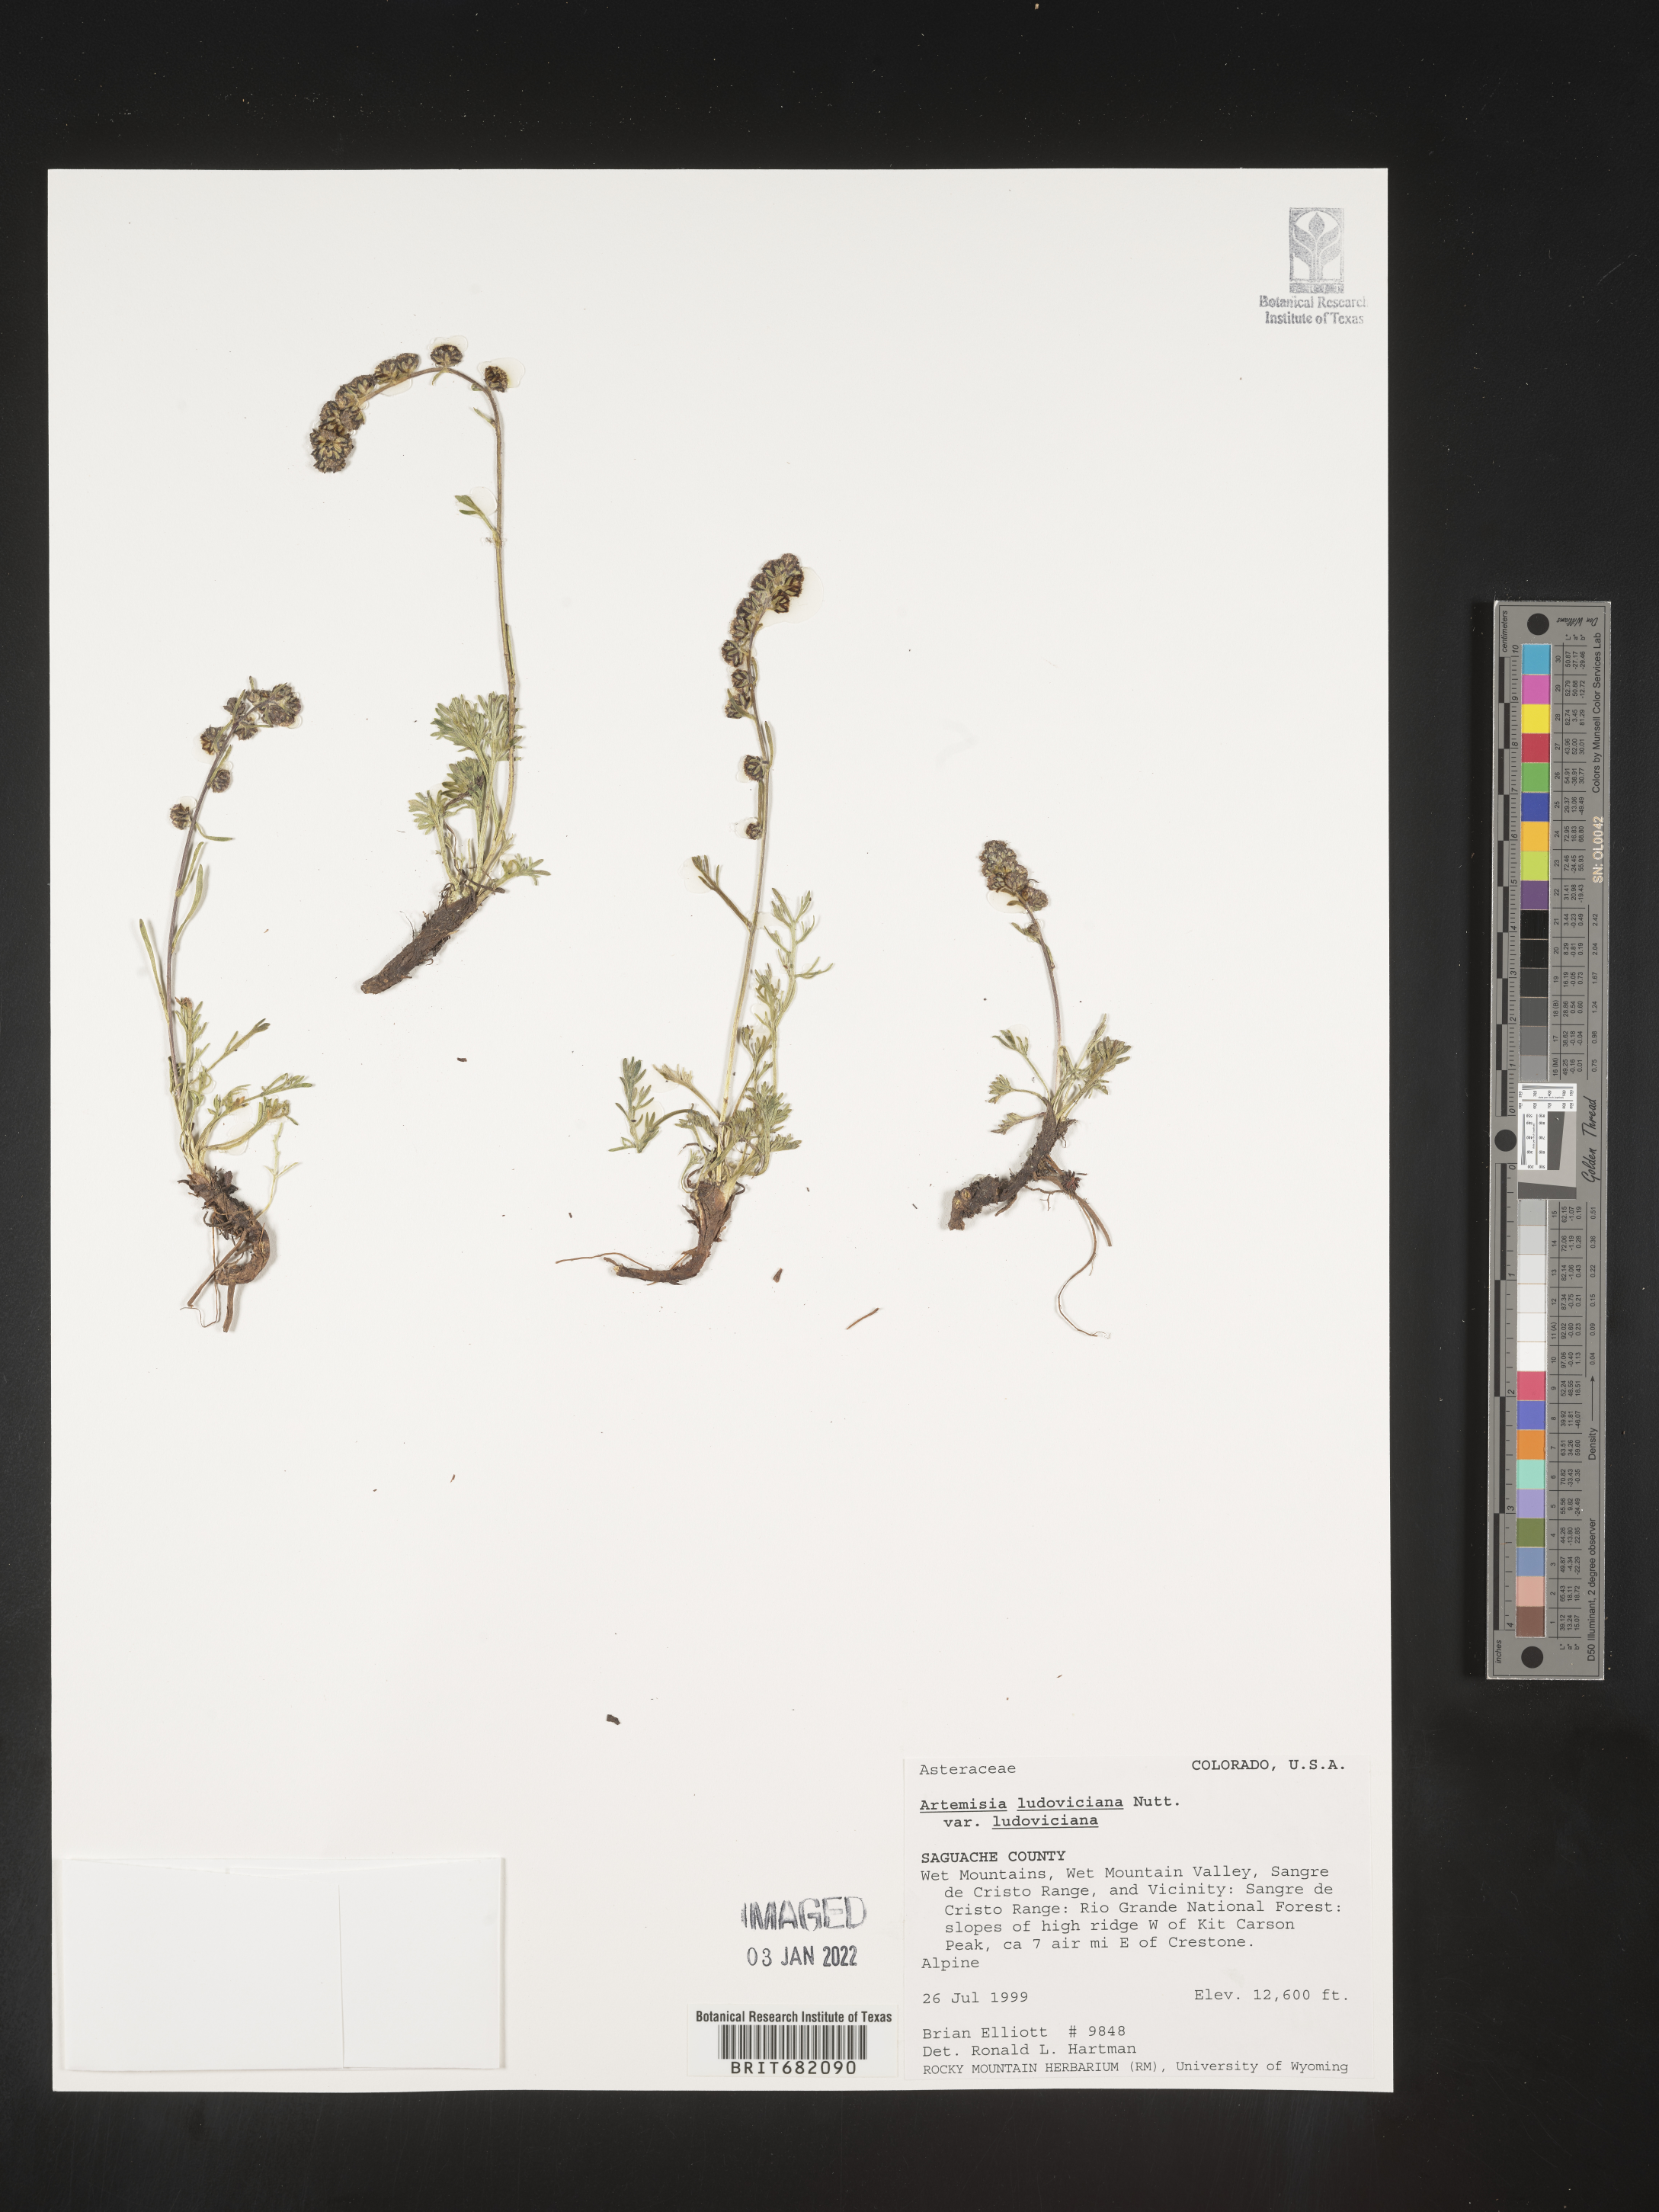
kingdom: Plantae
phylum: Tracheophyta
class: Magnoliopsida
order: Asterales
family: Asteraceae
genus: Artemisia
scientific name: Artemisia ludoviciana
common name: Western mugwort
